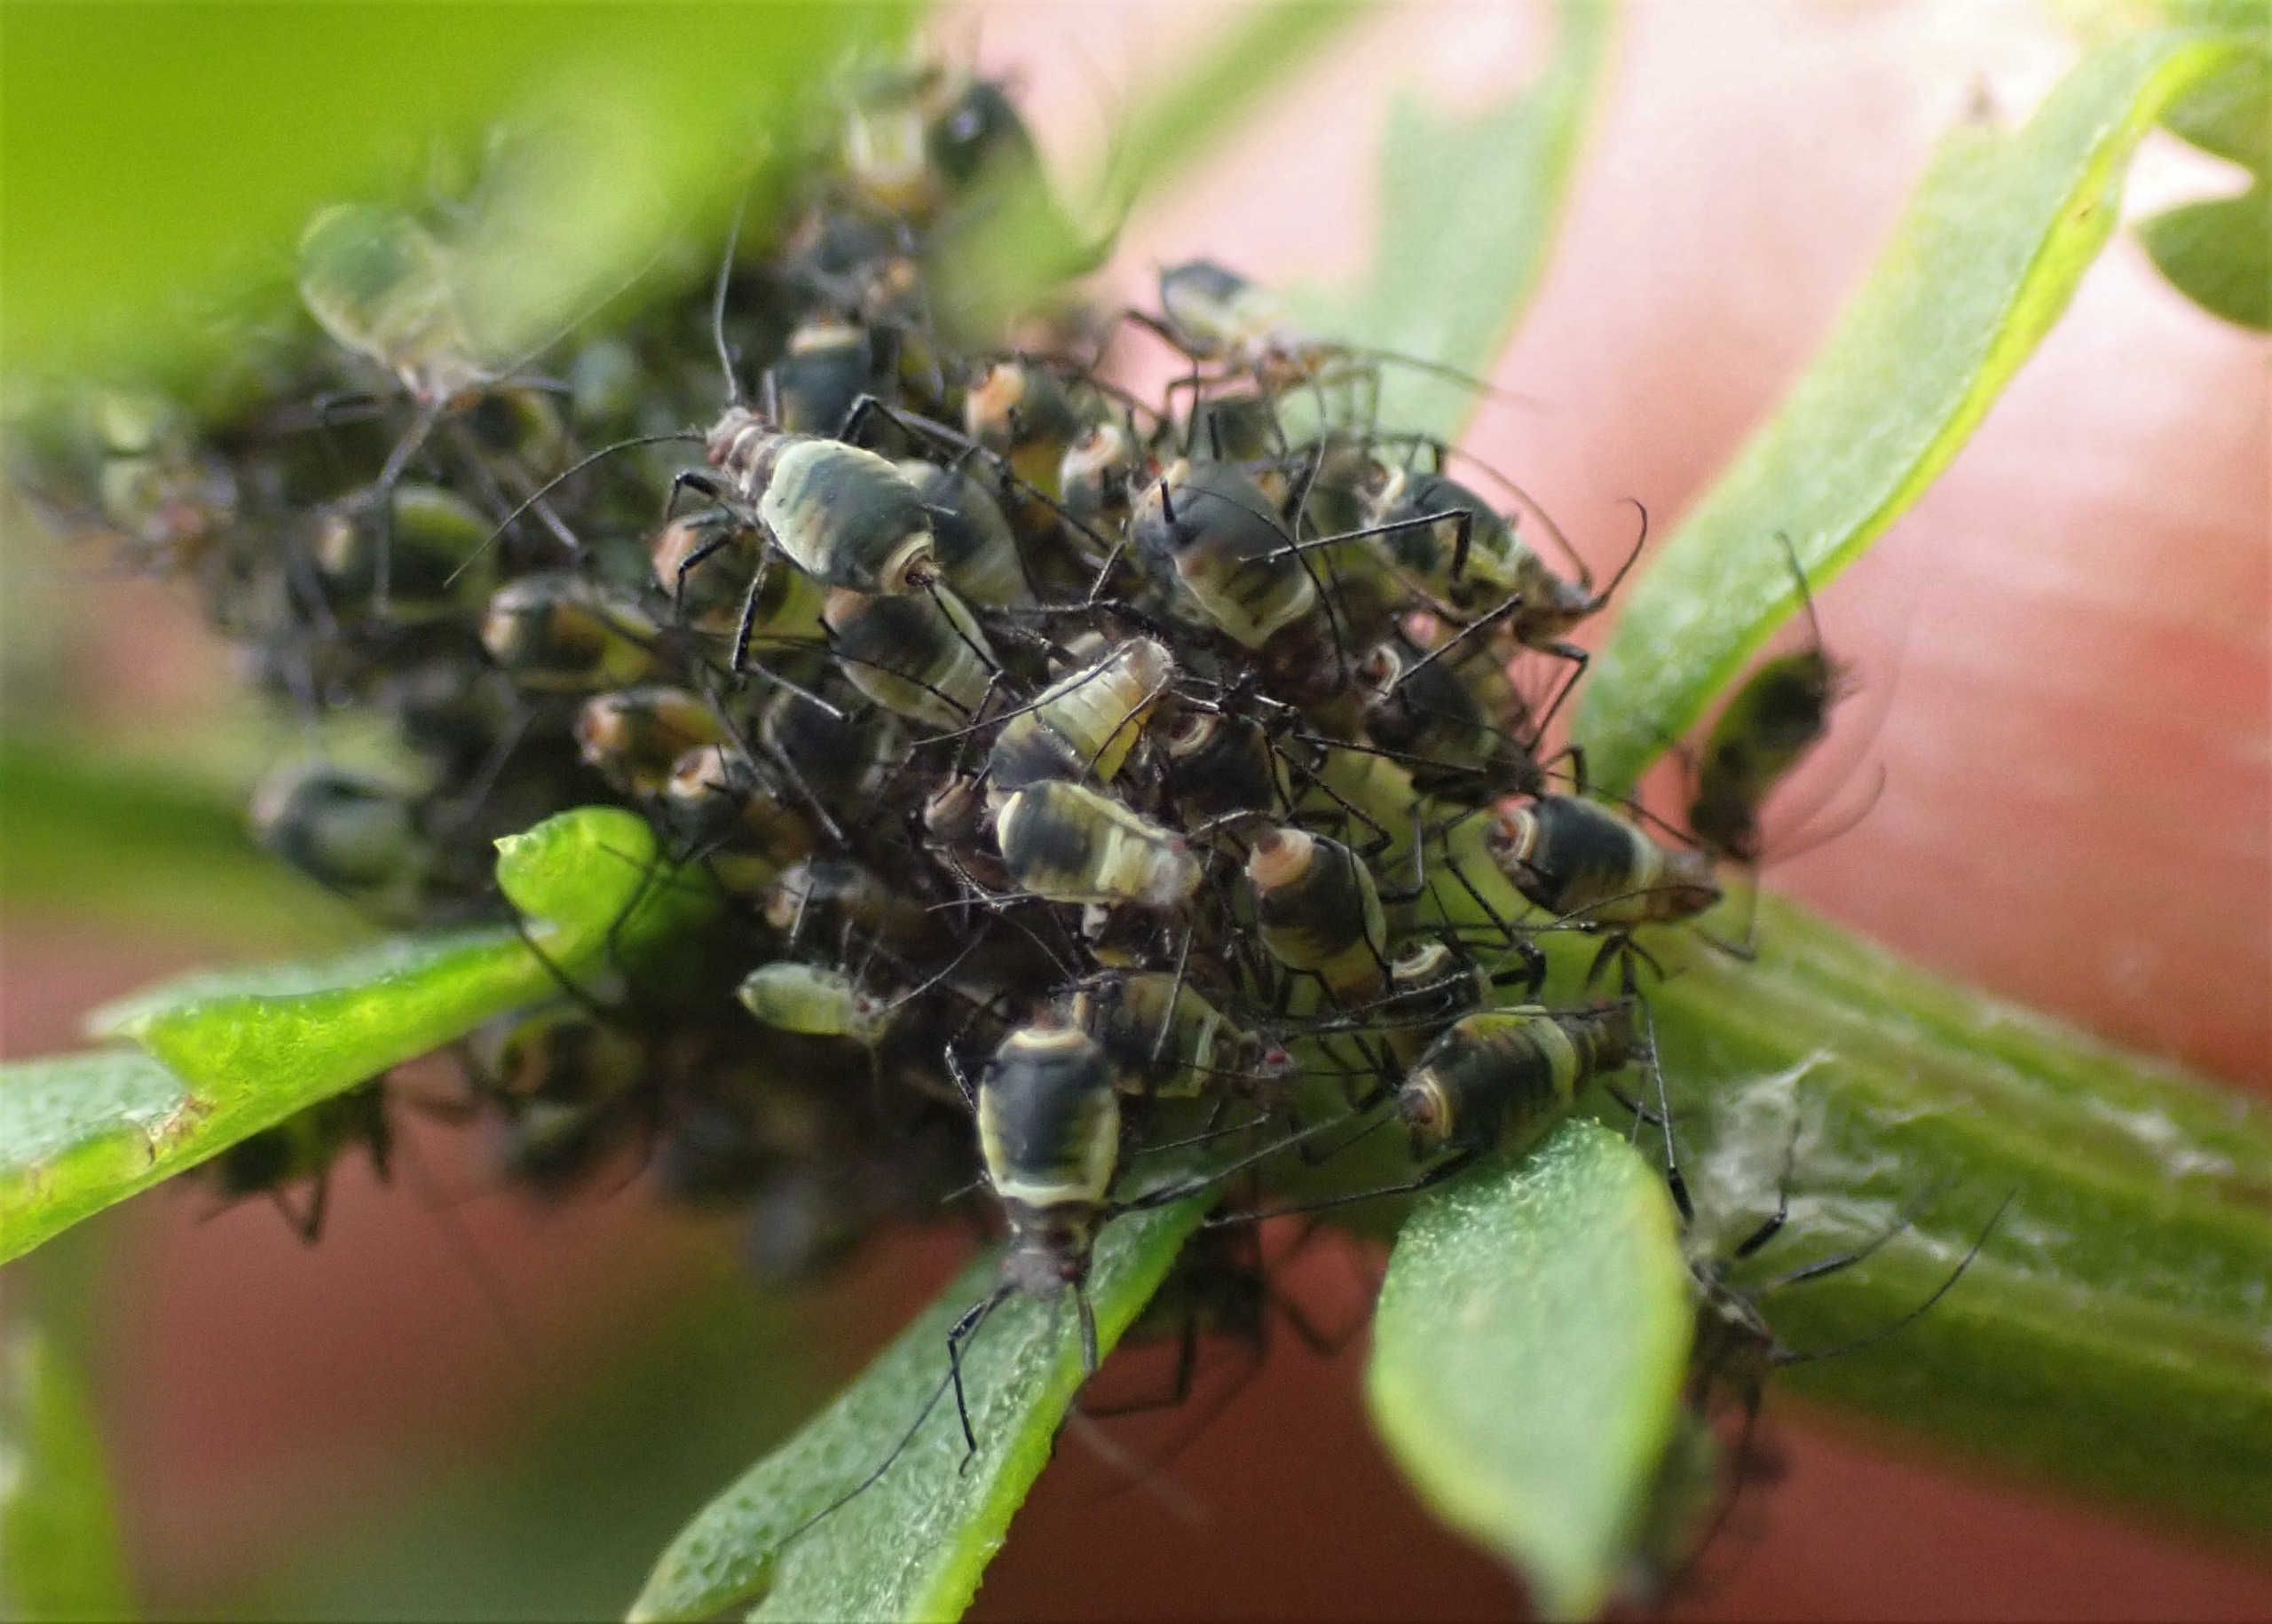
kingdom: Animalia
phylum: Arthropoda
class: Insecta
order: Hemiptera
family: Aphididae
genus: Metopeurum
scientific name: Metopeurum fuscoviride
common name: Mørk rejnfanbladlus
